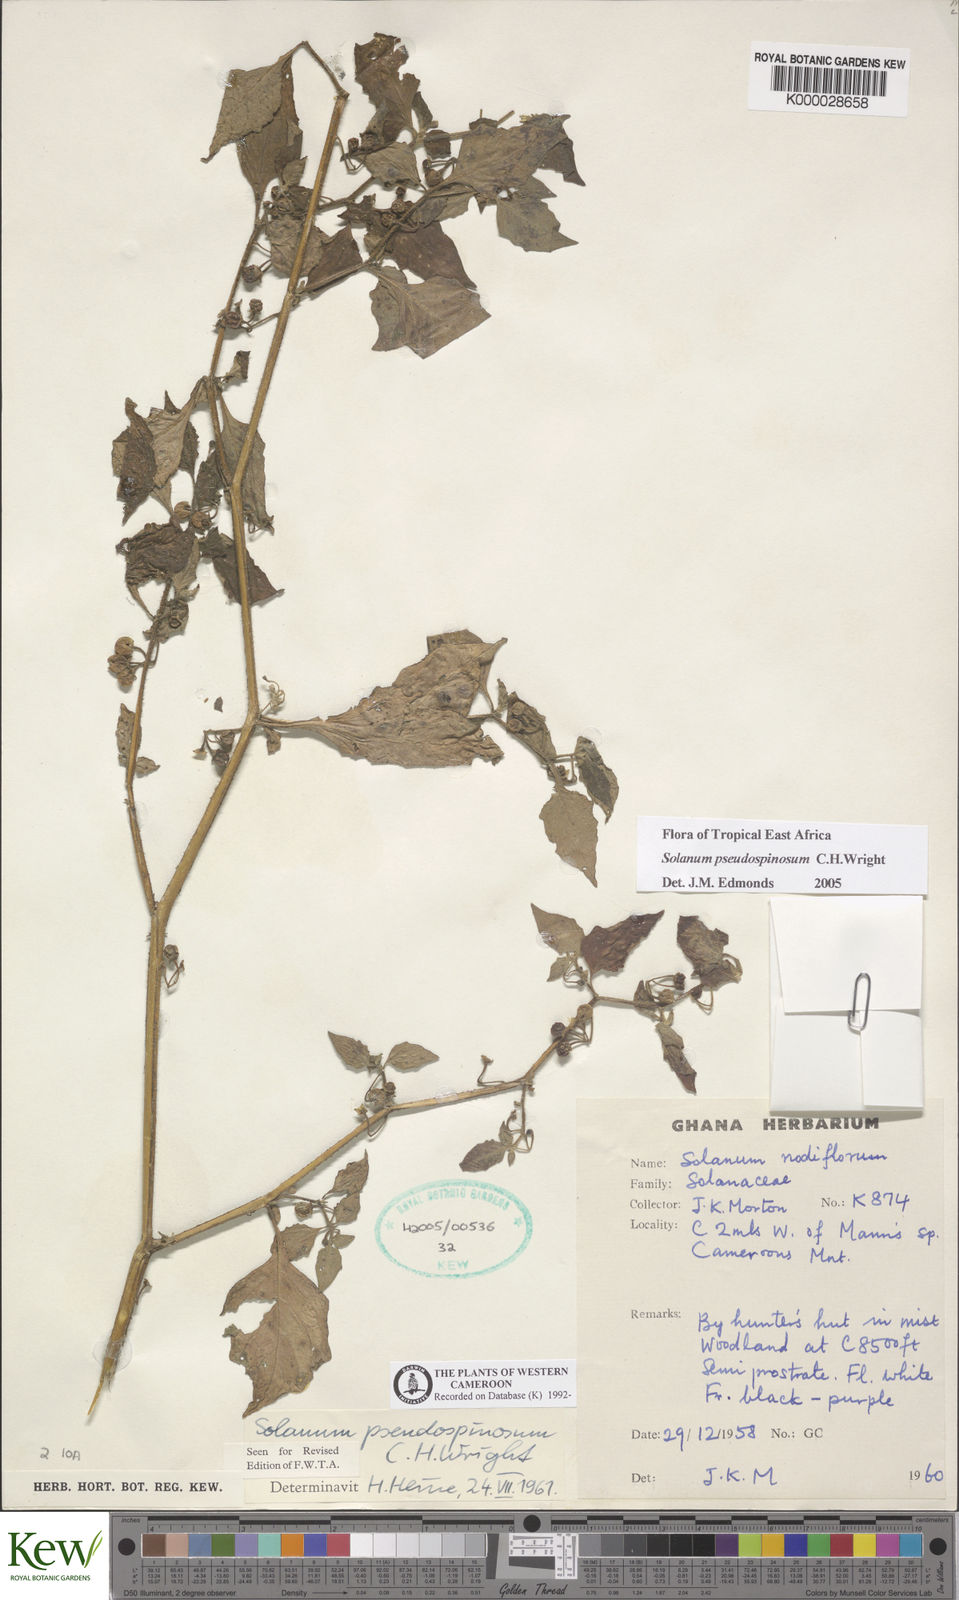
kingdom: Plantae
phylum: Tracheophyta
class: Magnoliopsida
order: Solanales
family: Solanaceae
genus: Solanum
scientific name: Solanum pseudospinosum
